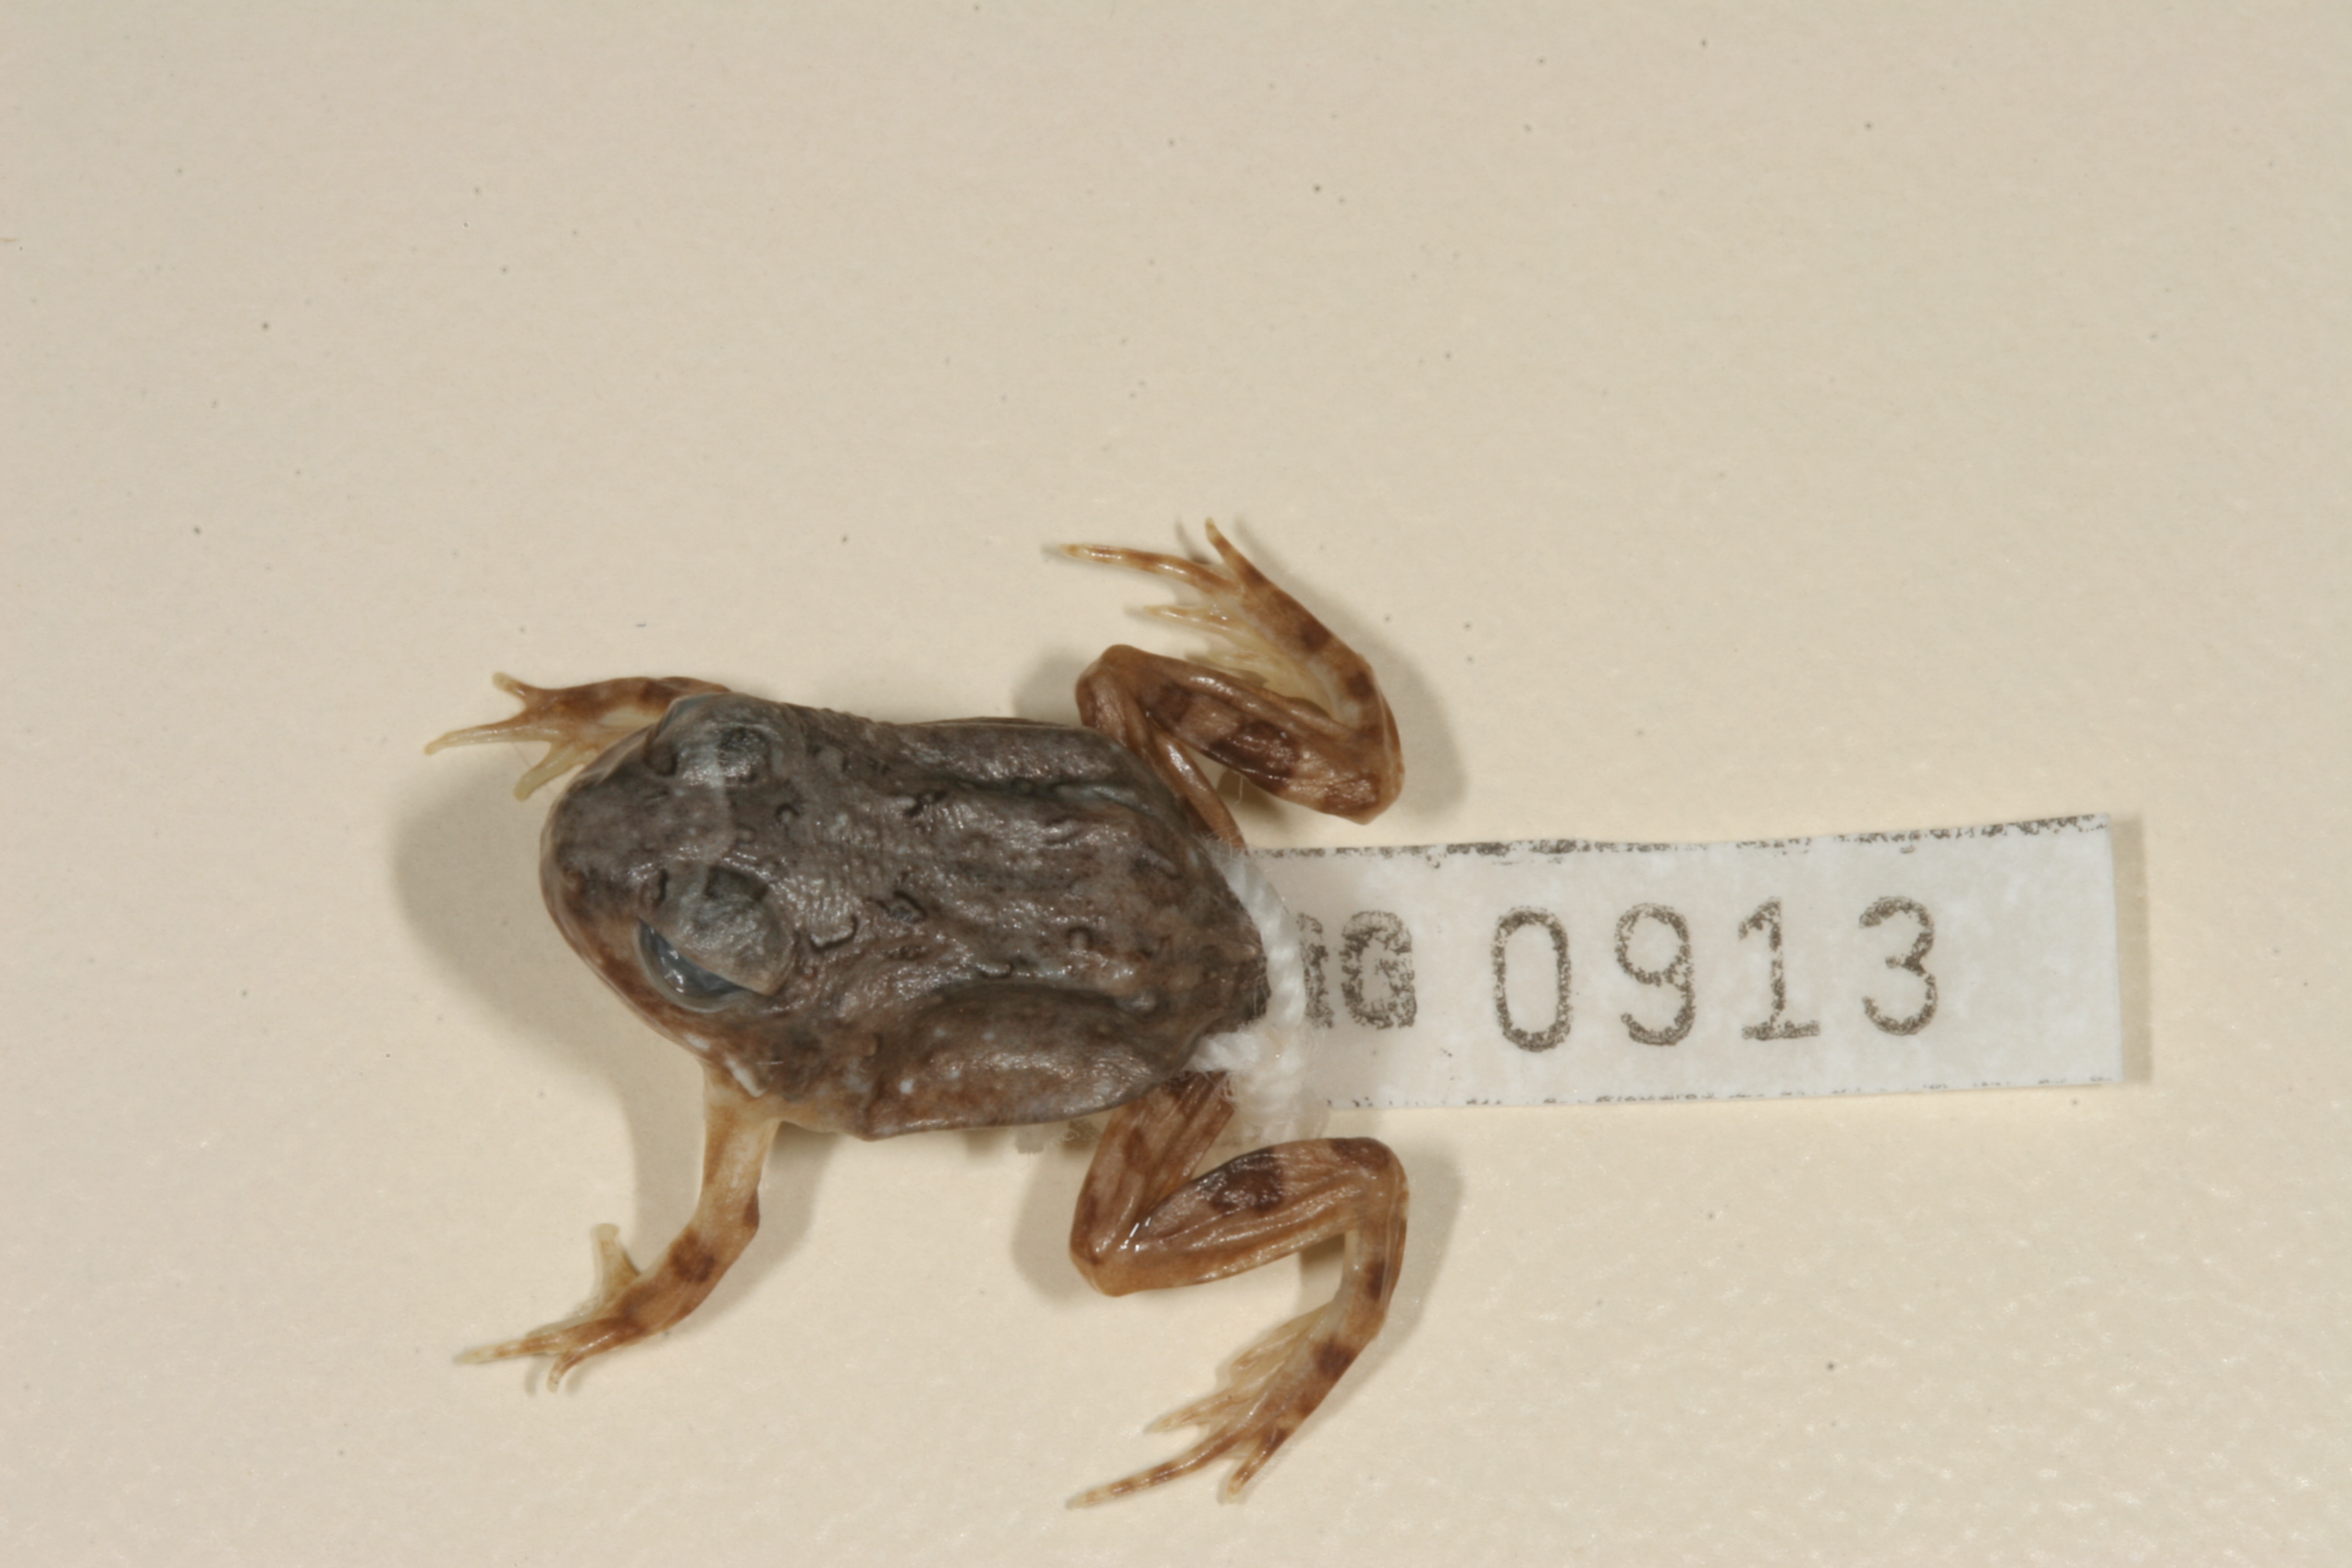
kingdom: Animalia
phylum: Chordata
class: Amphibia
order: Anura
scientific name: Anura
